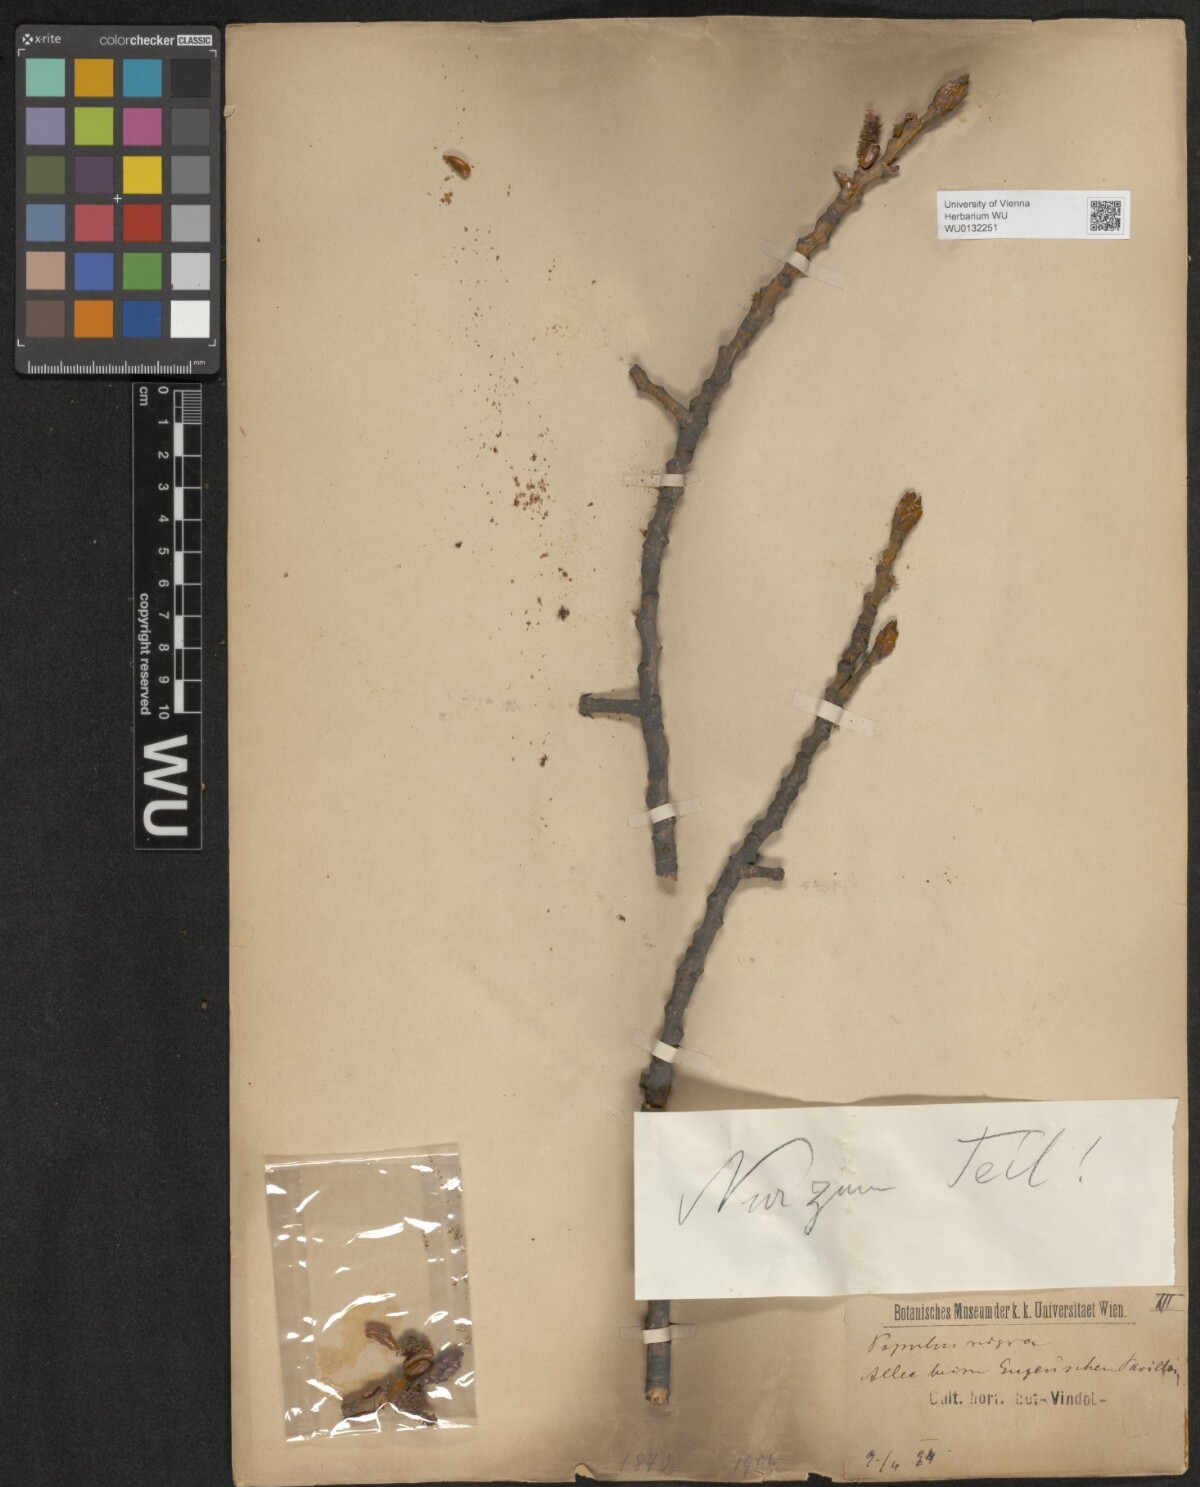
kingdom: Plantae
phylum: Tracheophyta
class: Magnoliopsida
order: Malpighiales
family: Salicaceae
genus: Populus
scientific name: Populus nigra
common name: Black poplar
